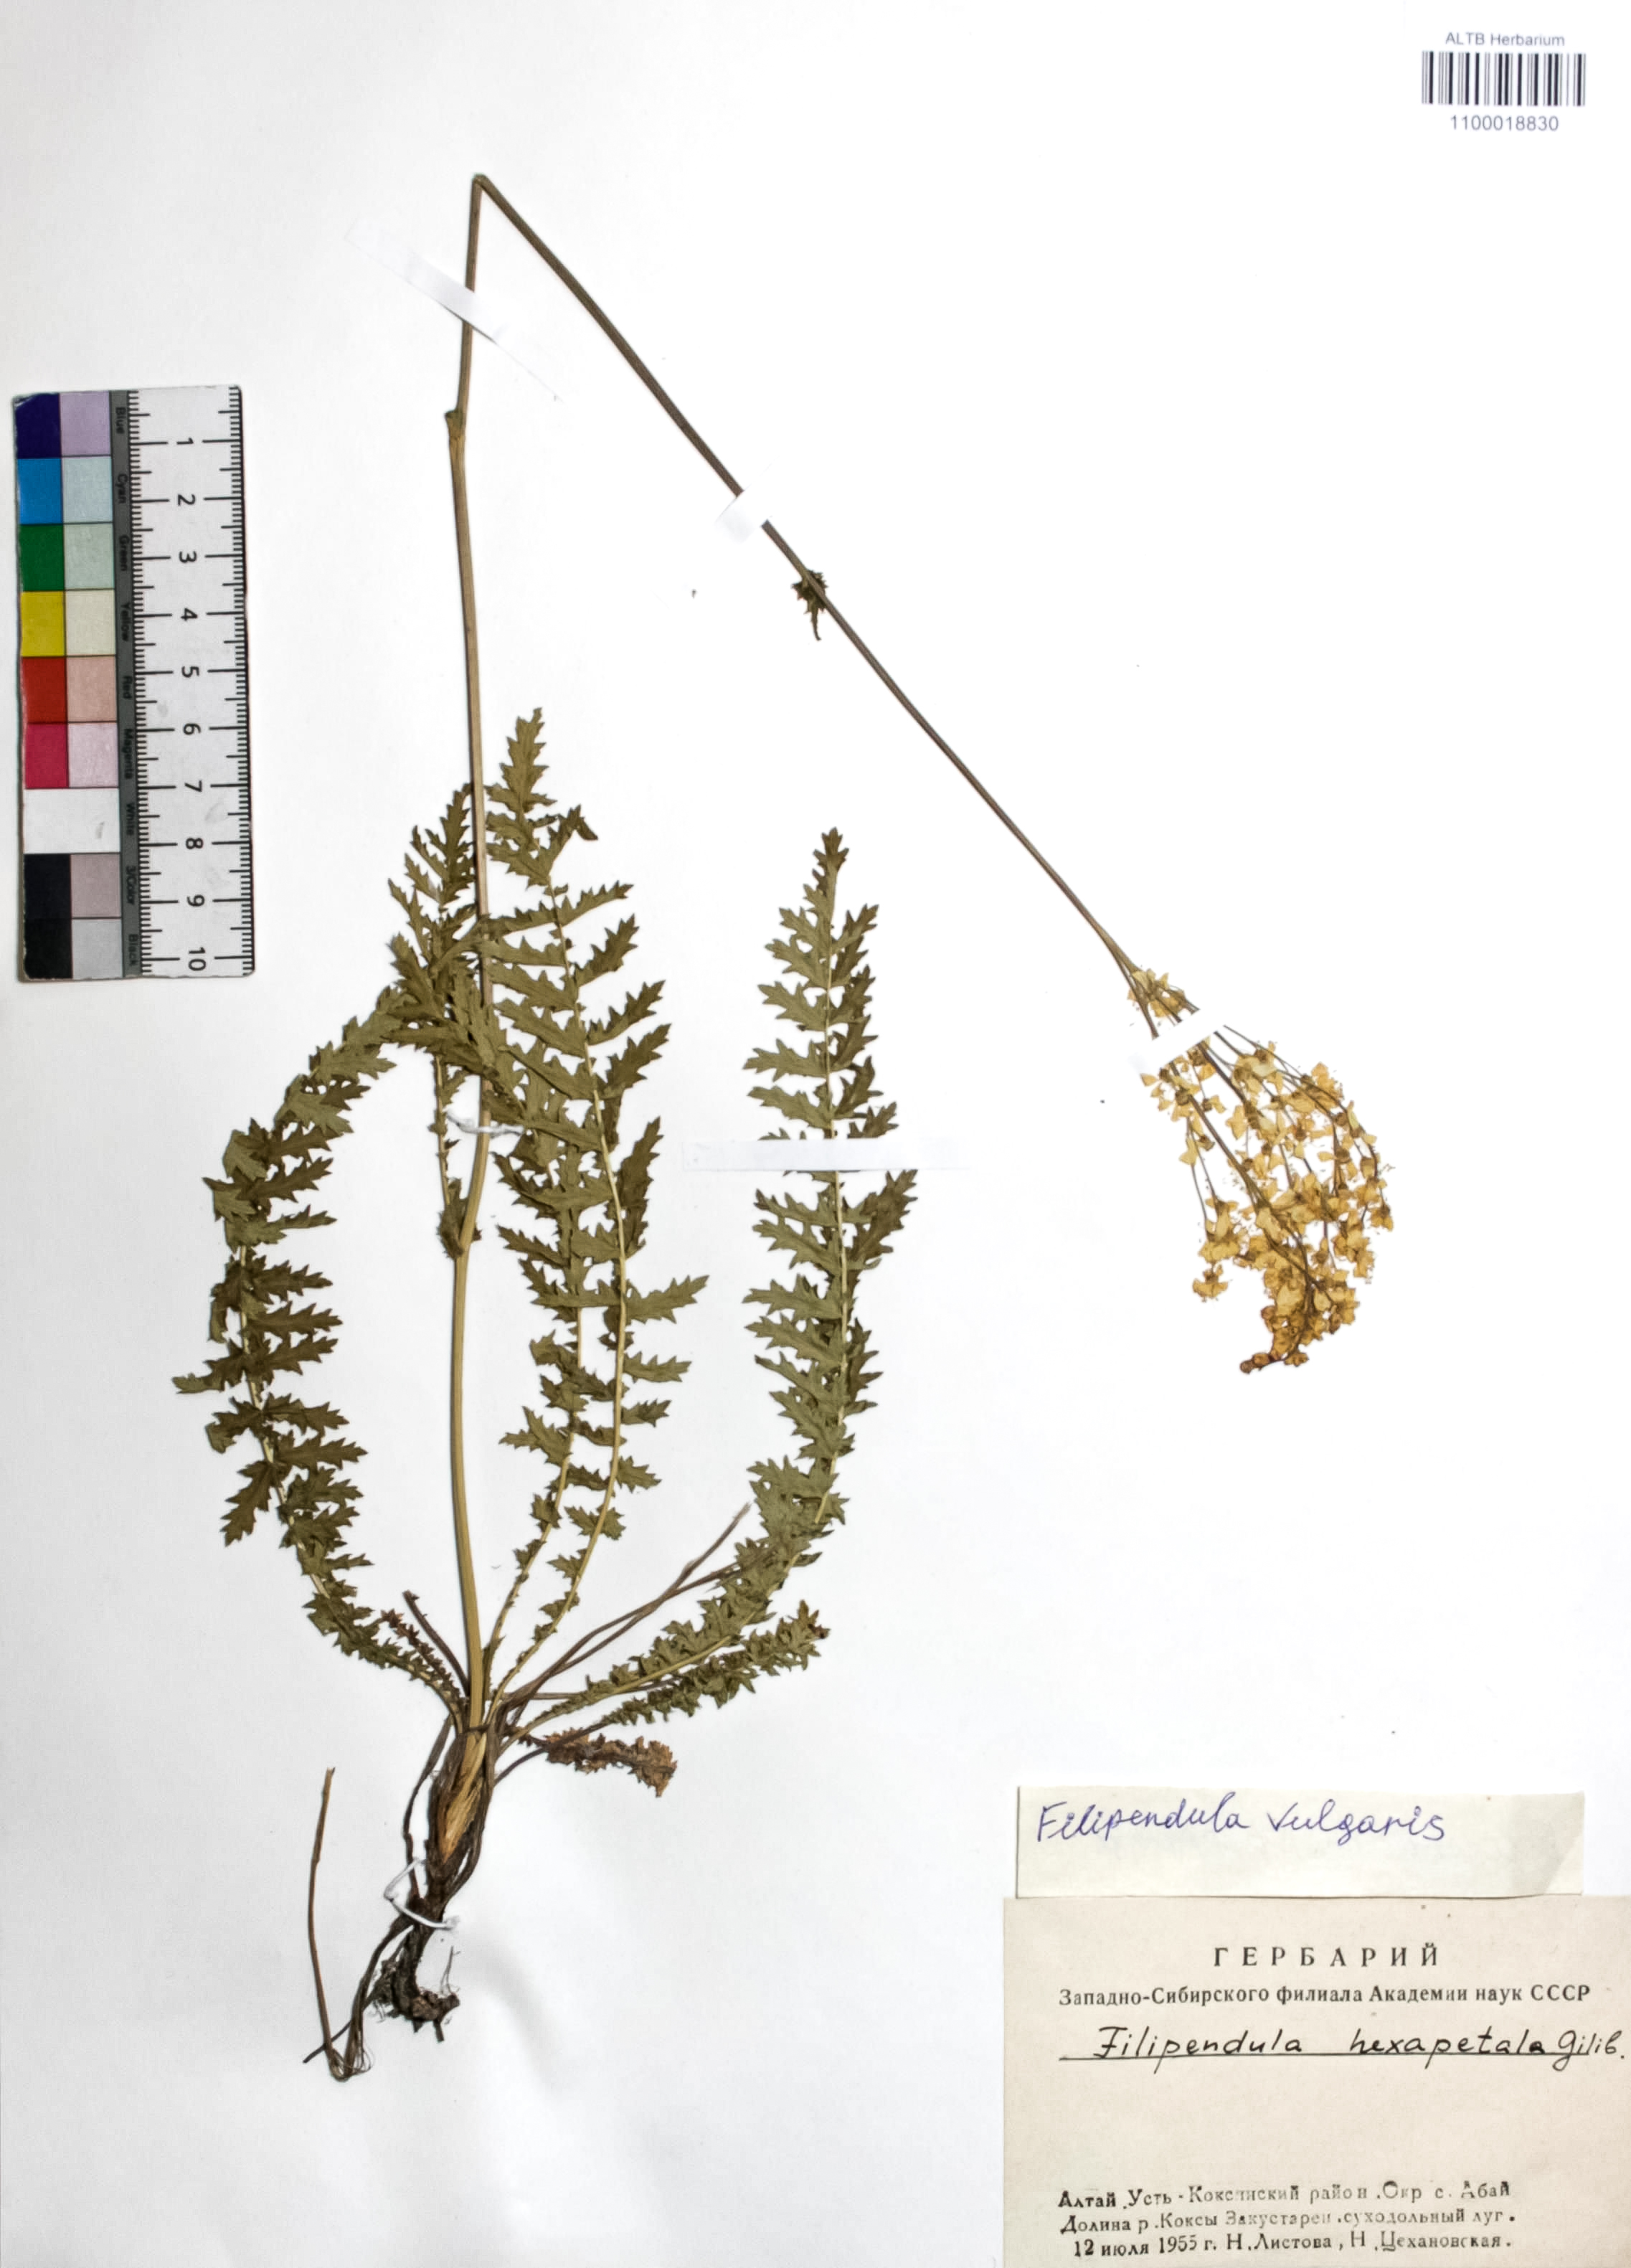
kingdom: Plantae
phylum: Tracheophyta
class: Magnoliopsida
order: Rosales
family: Rosaceae
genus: Filipendula
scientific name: Filipendula vulgaris
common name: Dropwort
